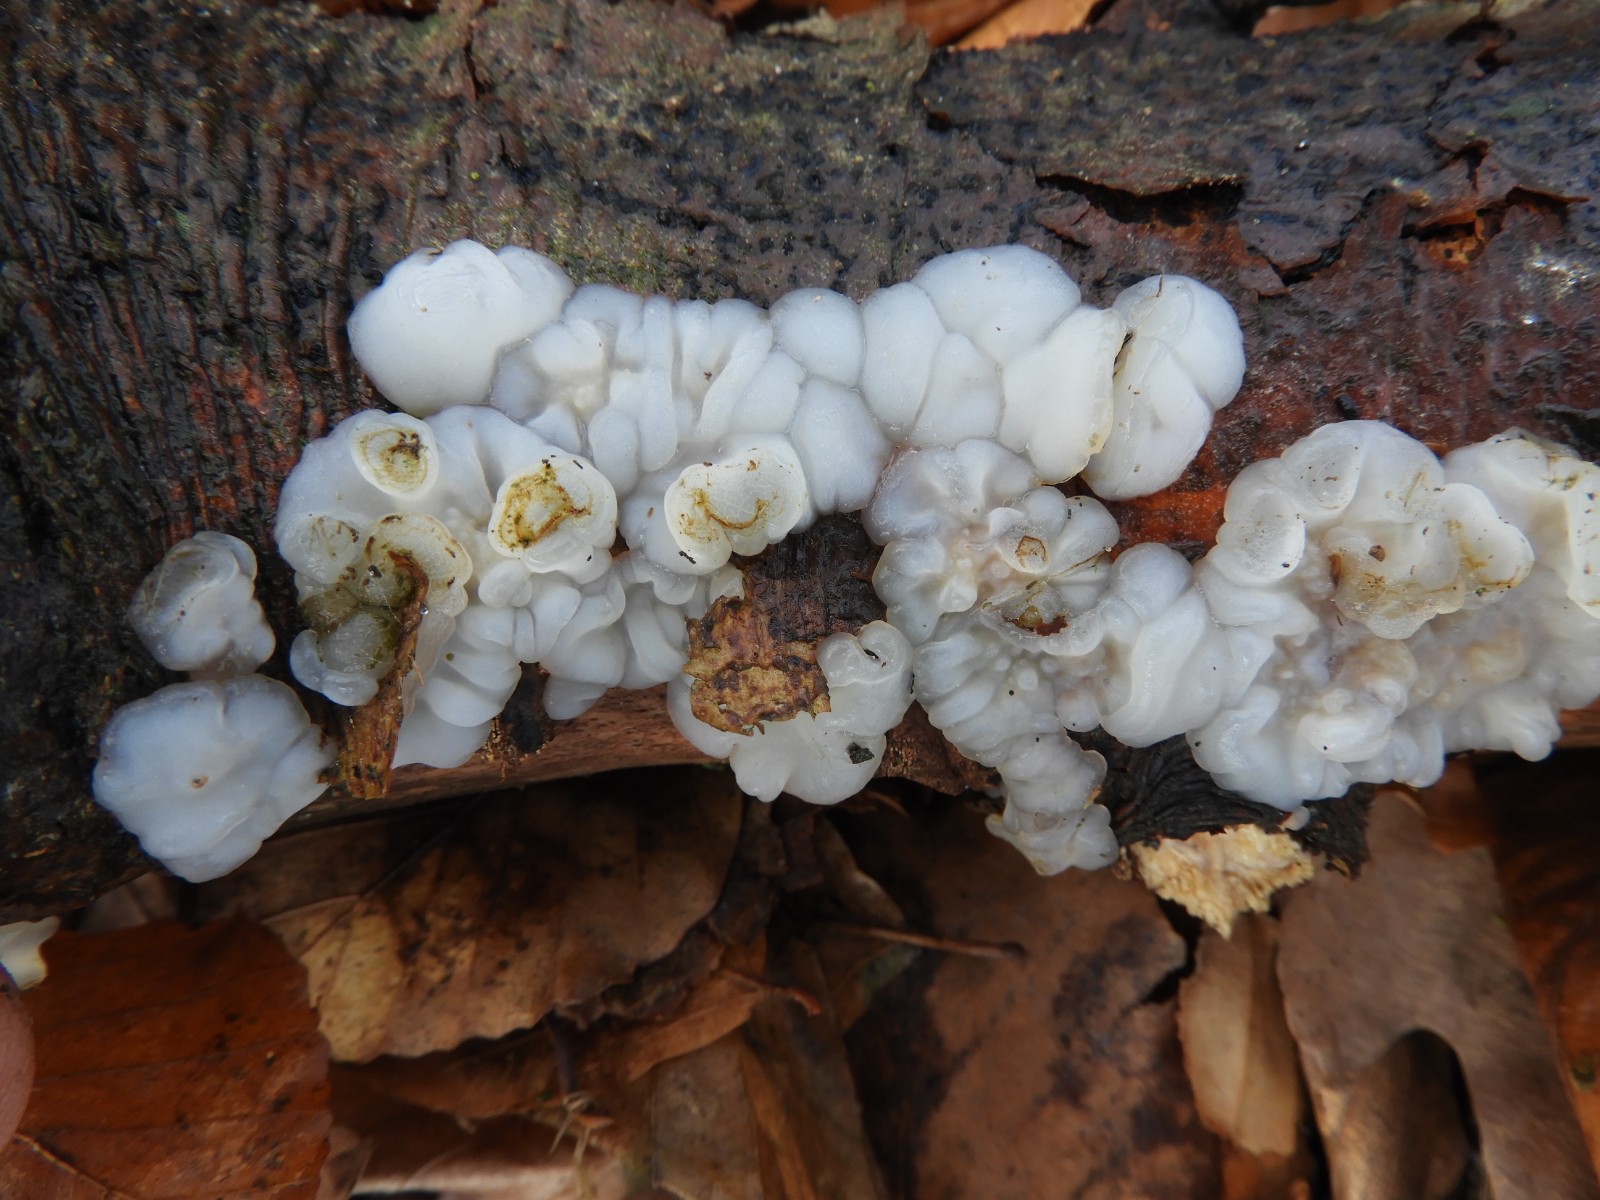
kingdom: Fungi
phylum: Basidiomycota
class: Agaricomycetes
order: Auriculariales
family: Auriculariaceae
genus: Exidia
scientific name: Exidia thuretiana
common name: hvidlig bævretop
